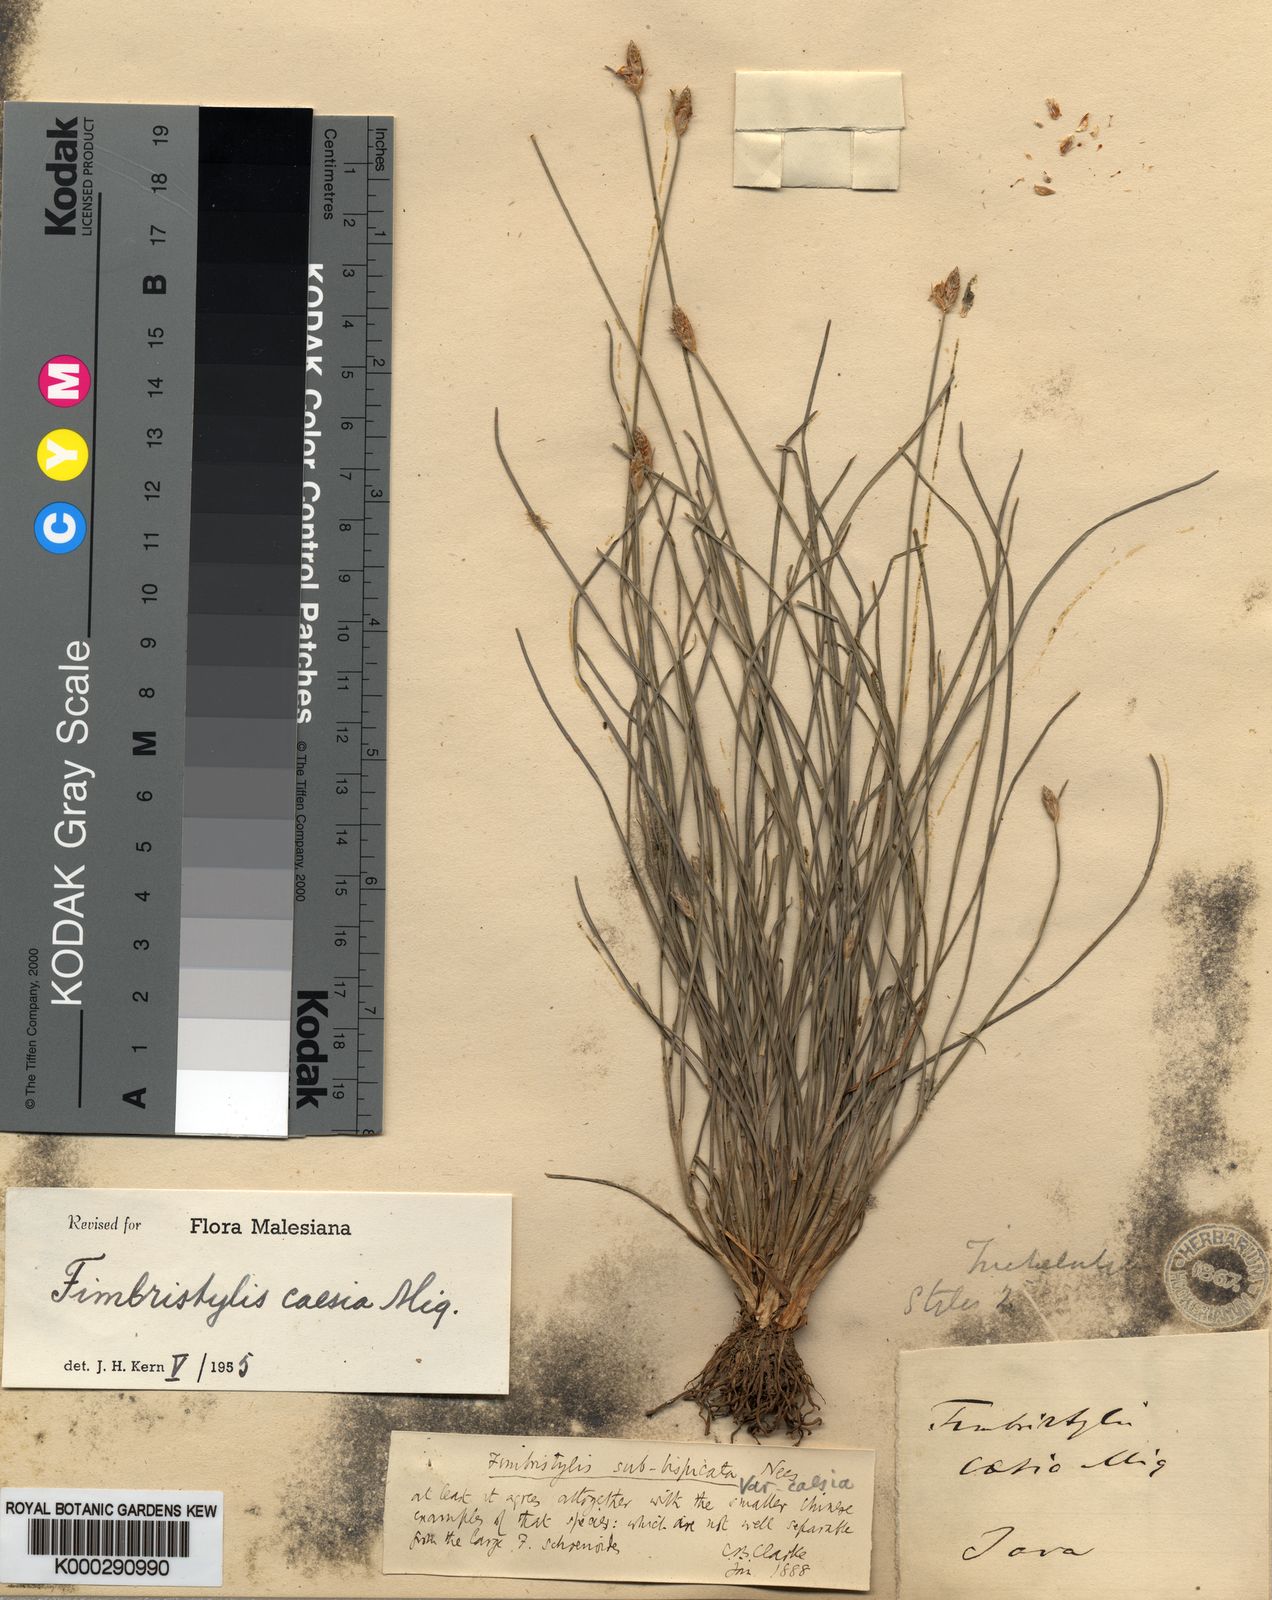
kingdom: Plantae
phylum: Tracheophyta
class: Liliopsida
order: Poales
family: Cyperaceae
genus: Fimbristylis
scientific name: Fimbristylis caesia
